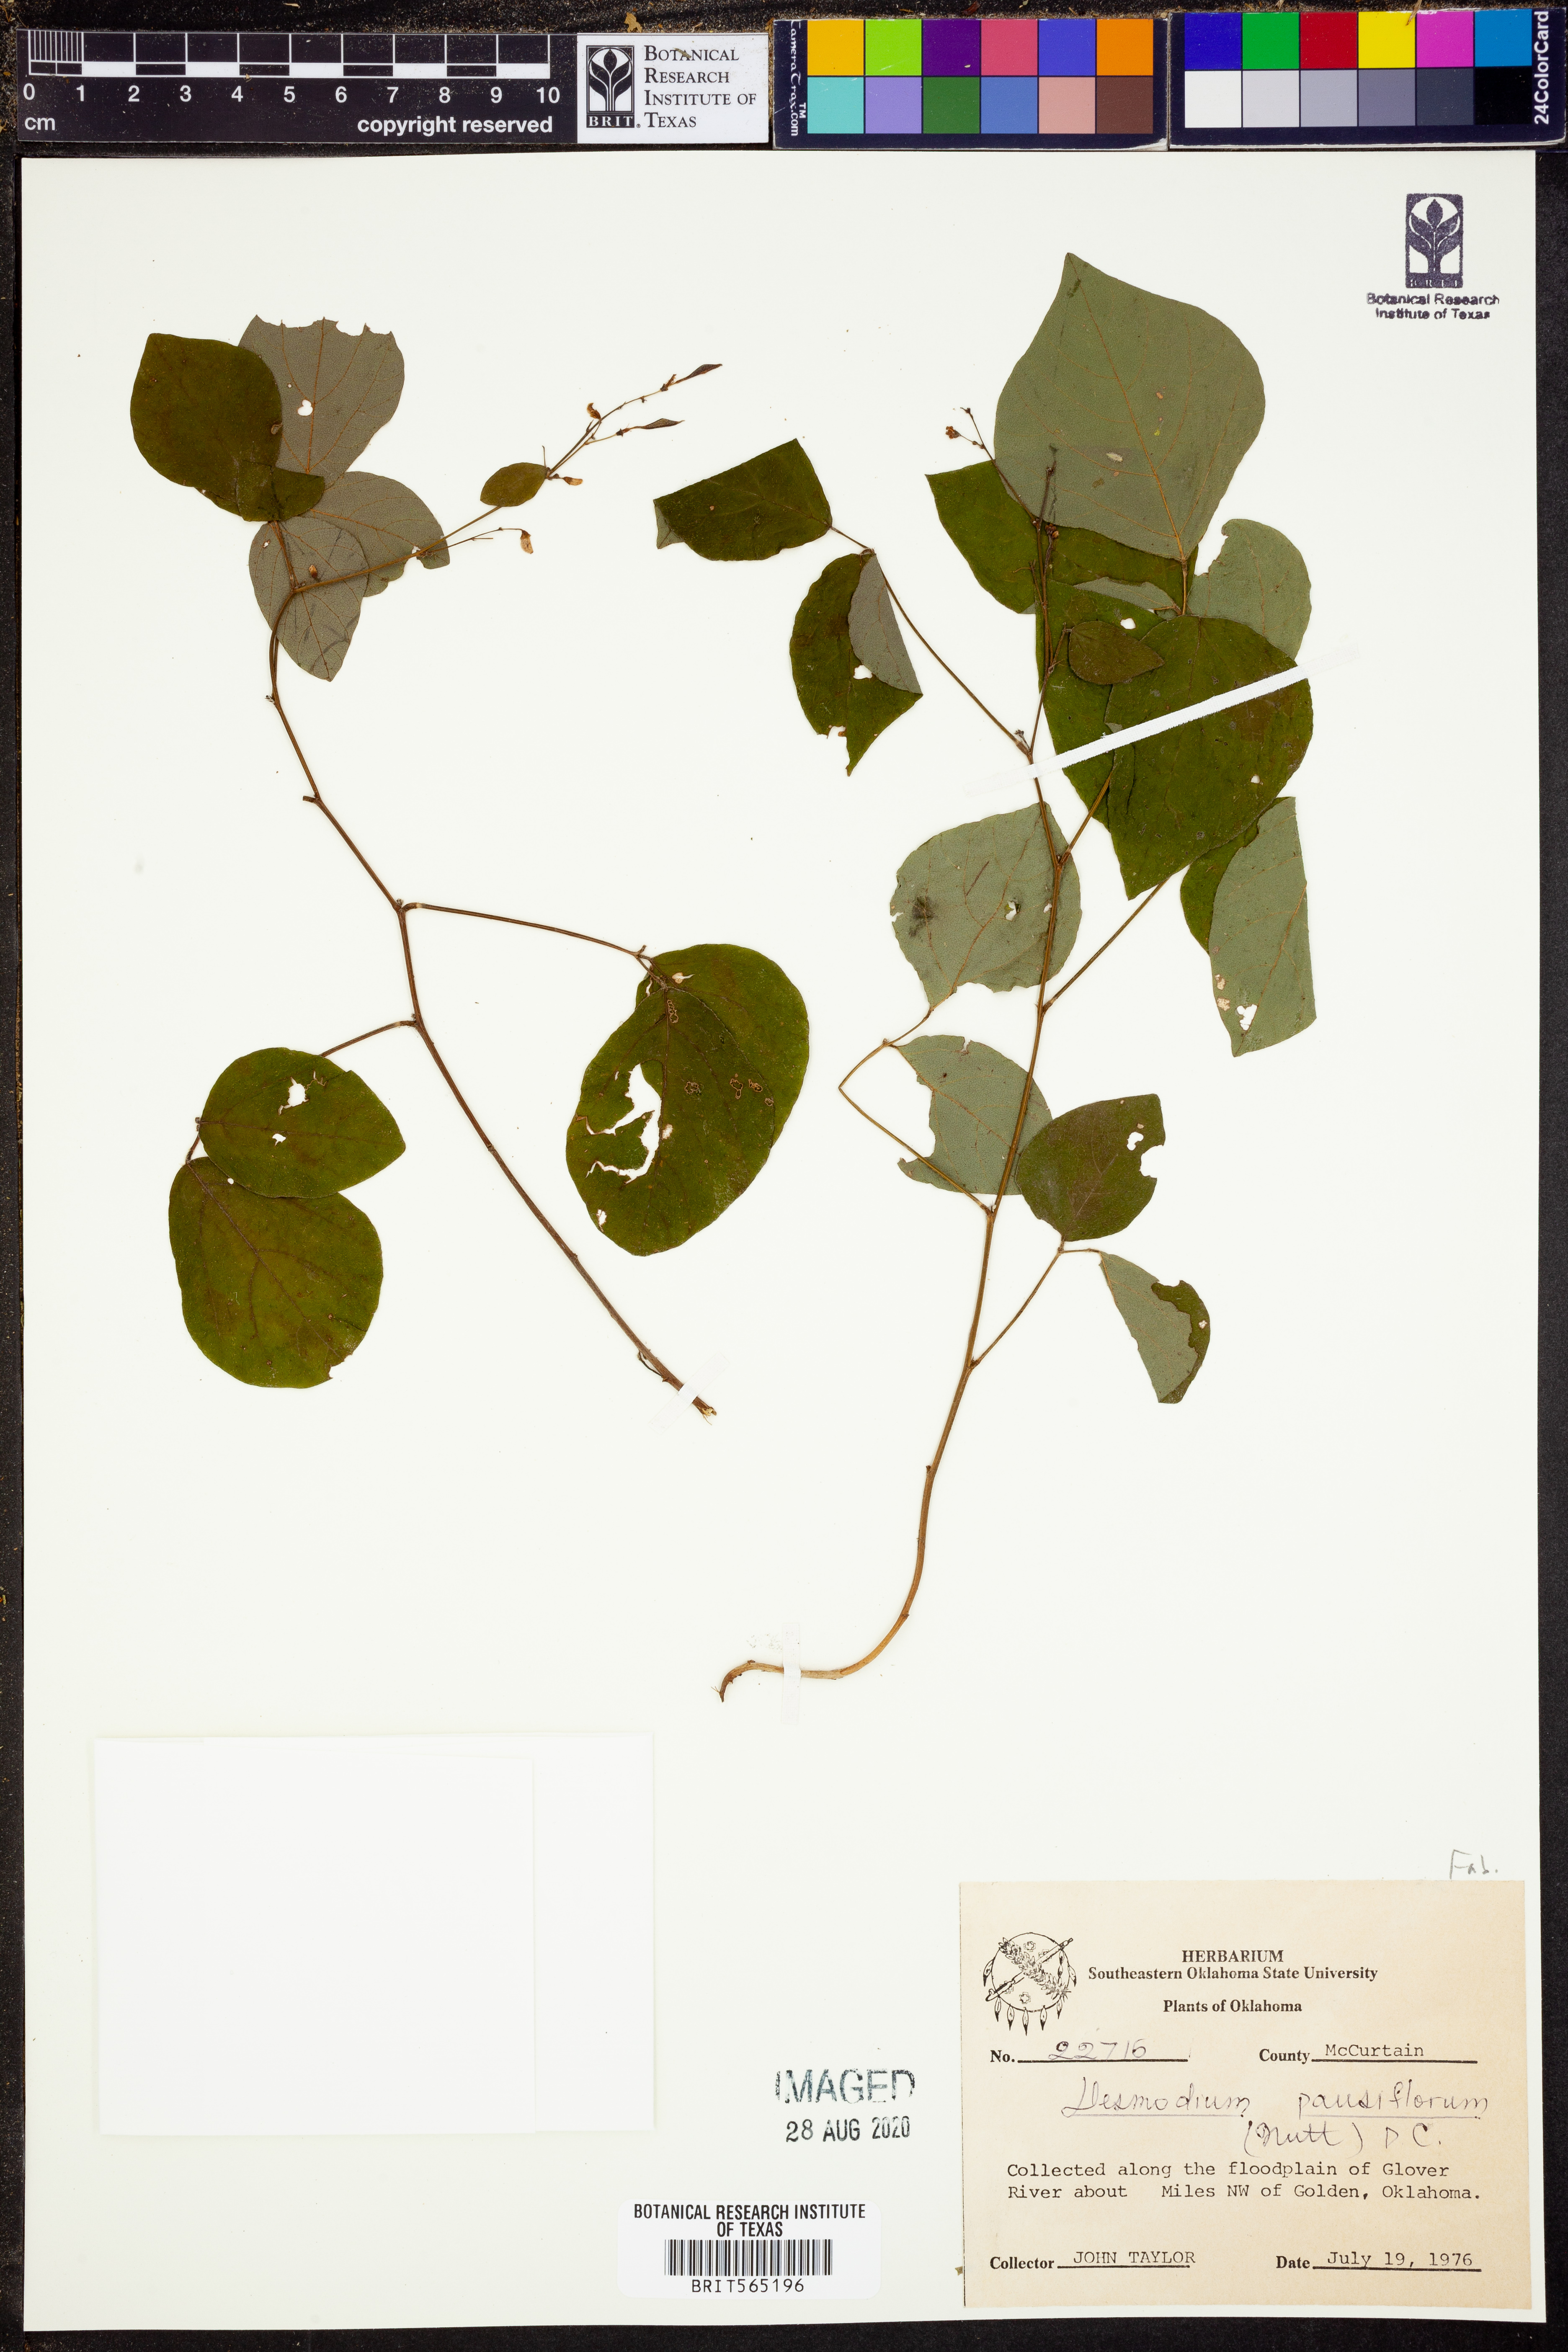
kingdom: Plantae
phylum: Tracheophyta
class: Magnoliopsida
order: Fabales
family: Fabaceae
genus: Hylodesmum
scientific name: Hylodesmum pauciflorum
